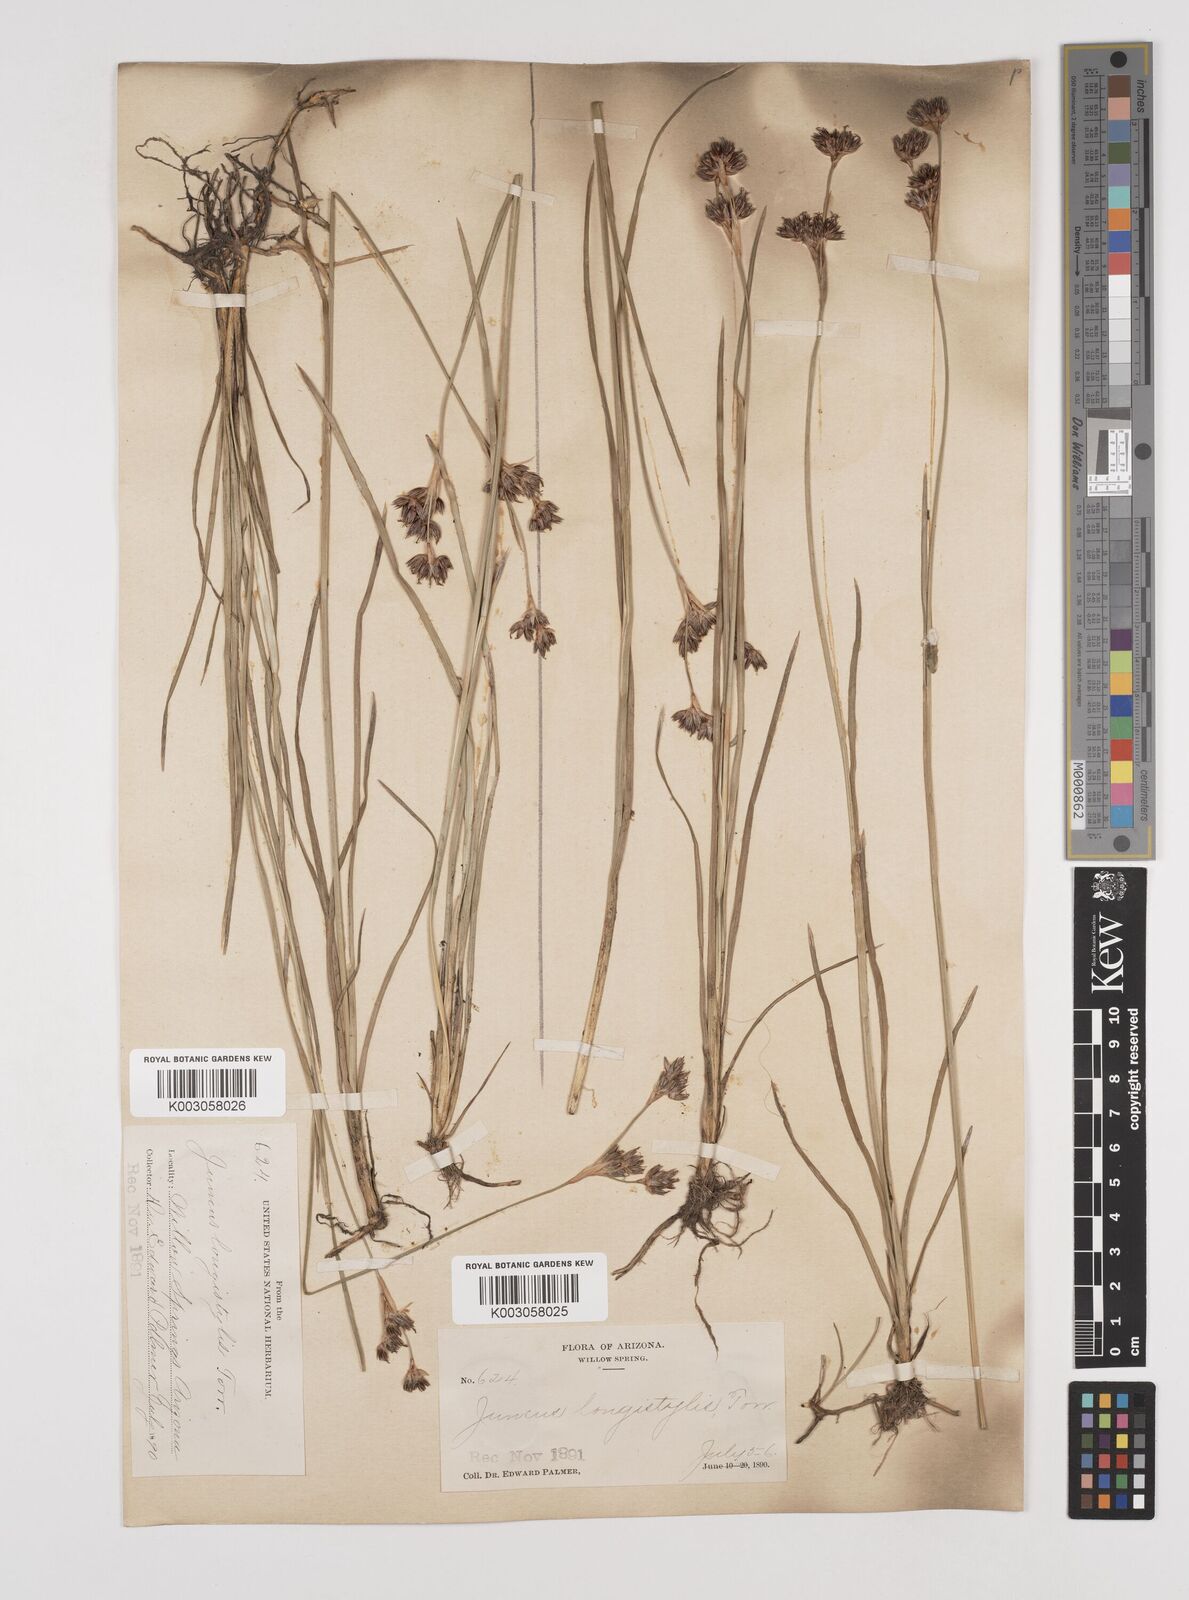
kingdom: Plantae
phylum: Tracheophyta
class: Liliopsida
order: Poales
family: Juncaceae
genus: Juncus
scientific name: Juncus longistylis
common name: Long-style rush
